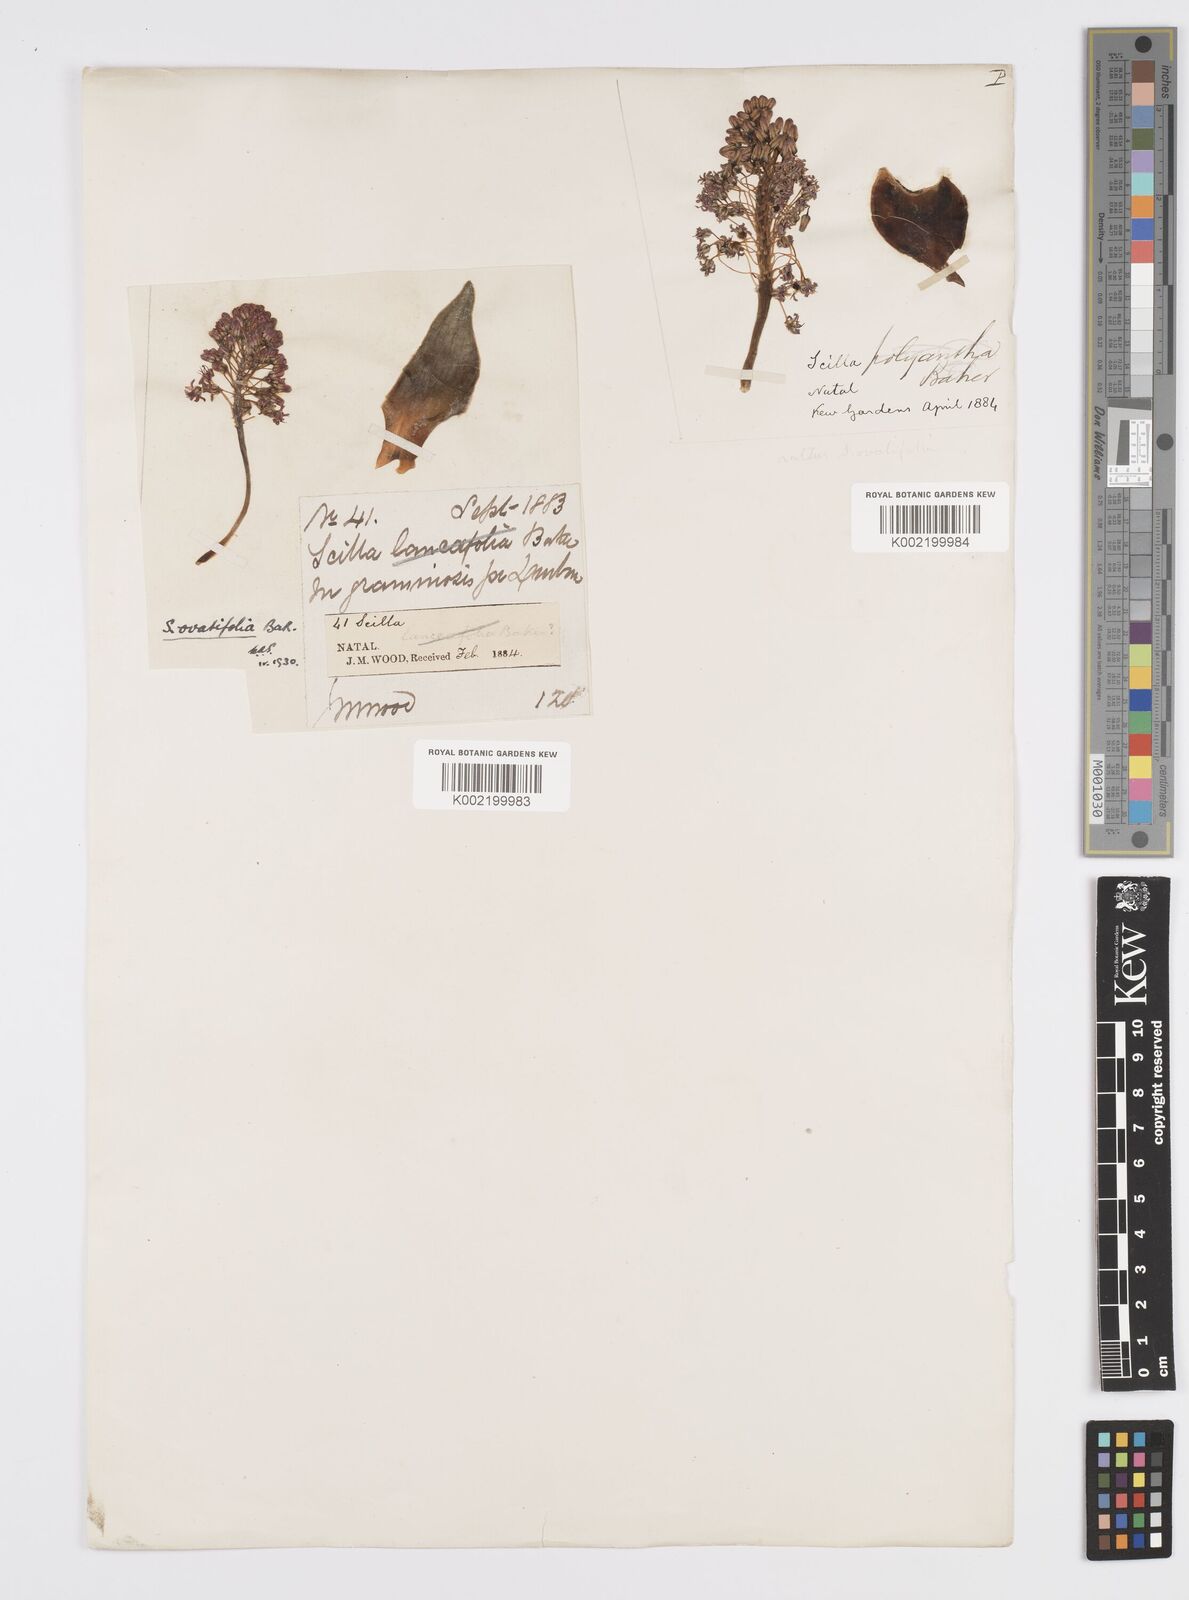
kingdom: Plantae
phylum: Tracheophyta
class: Liliopsida
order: Asparagales
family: Asparagaceae
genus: Ledebouria
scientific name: Ledebouria ovatifolia
